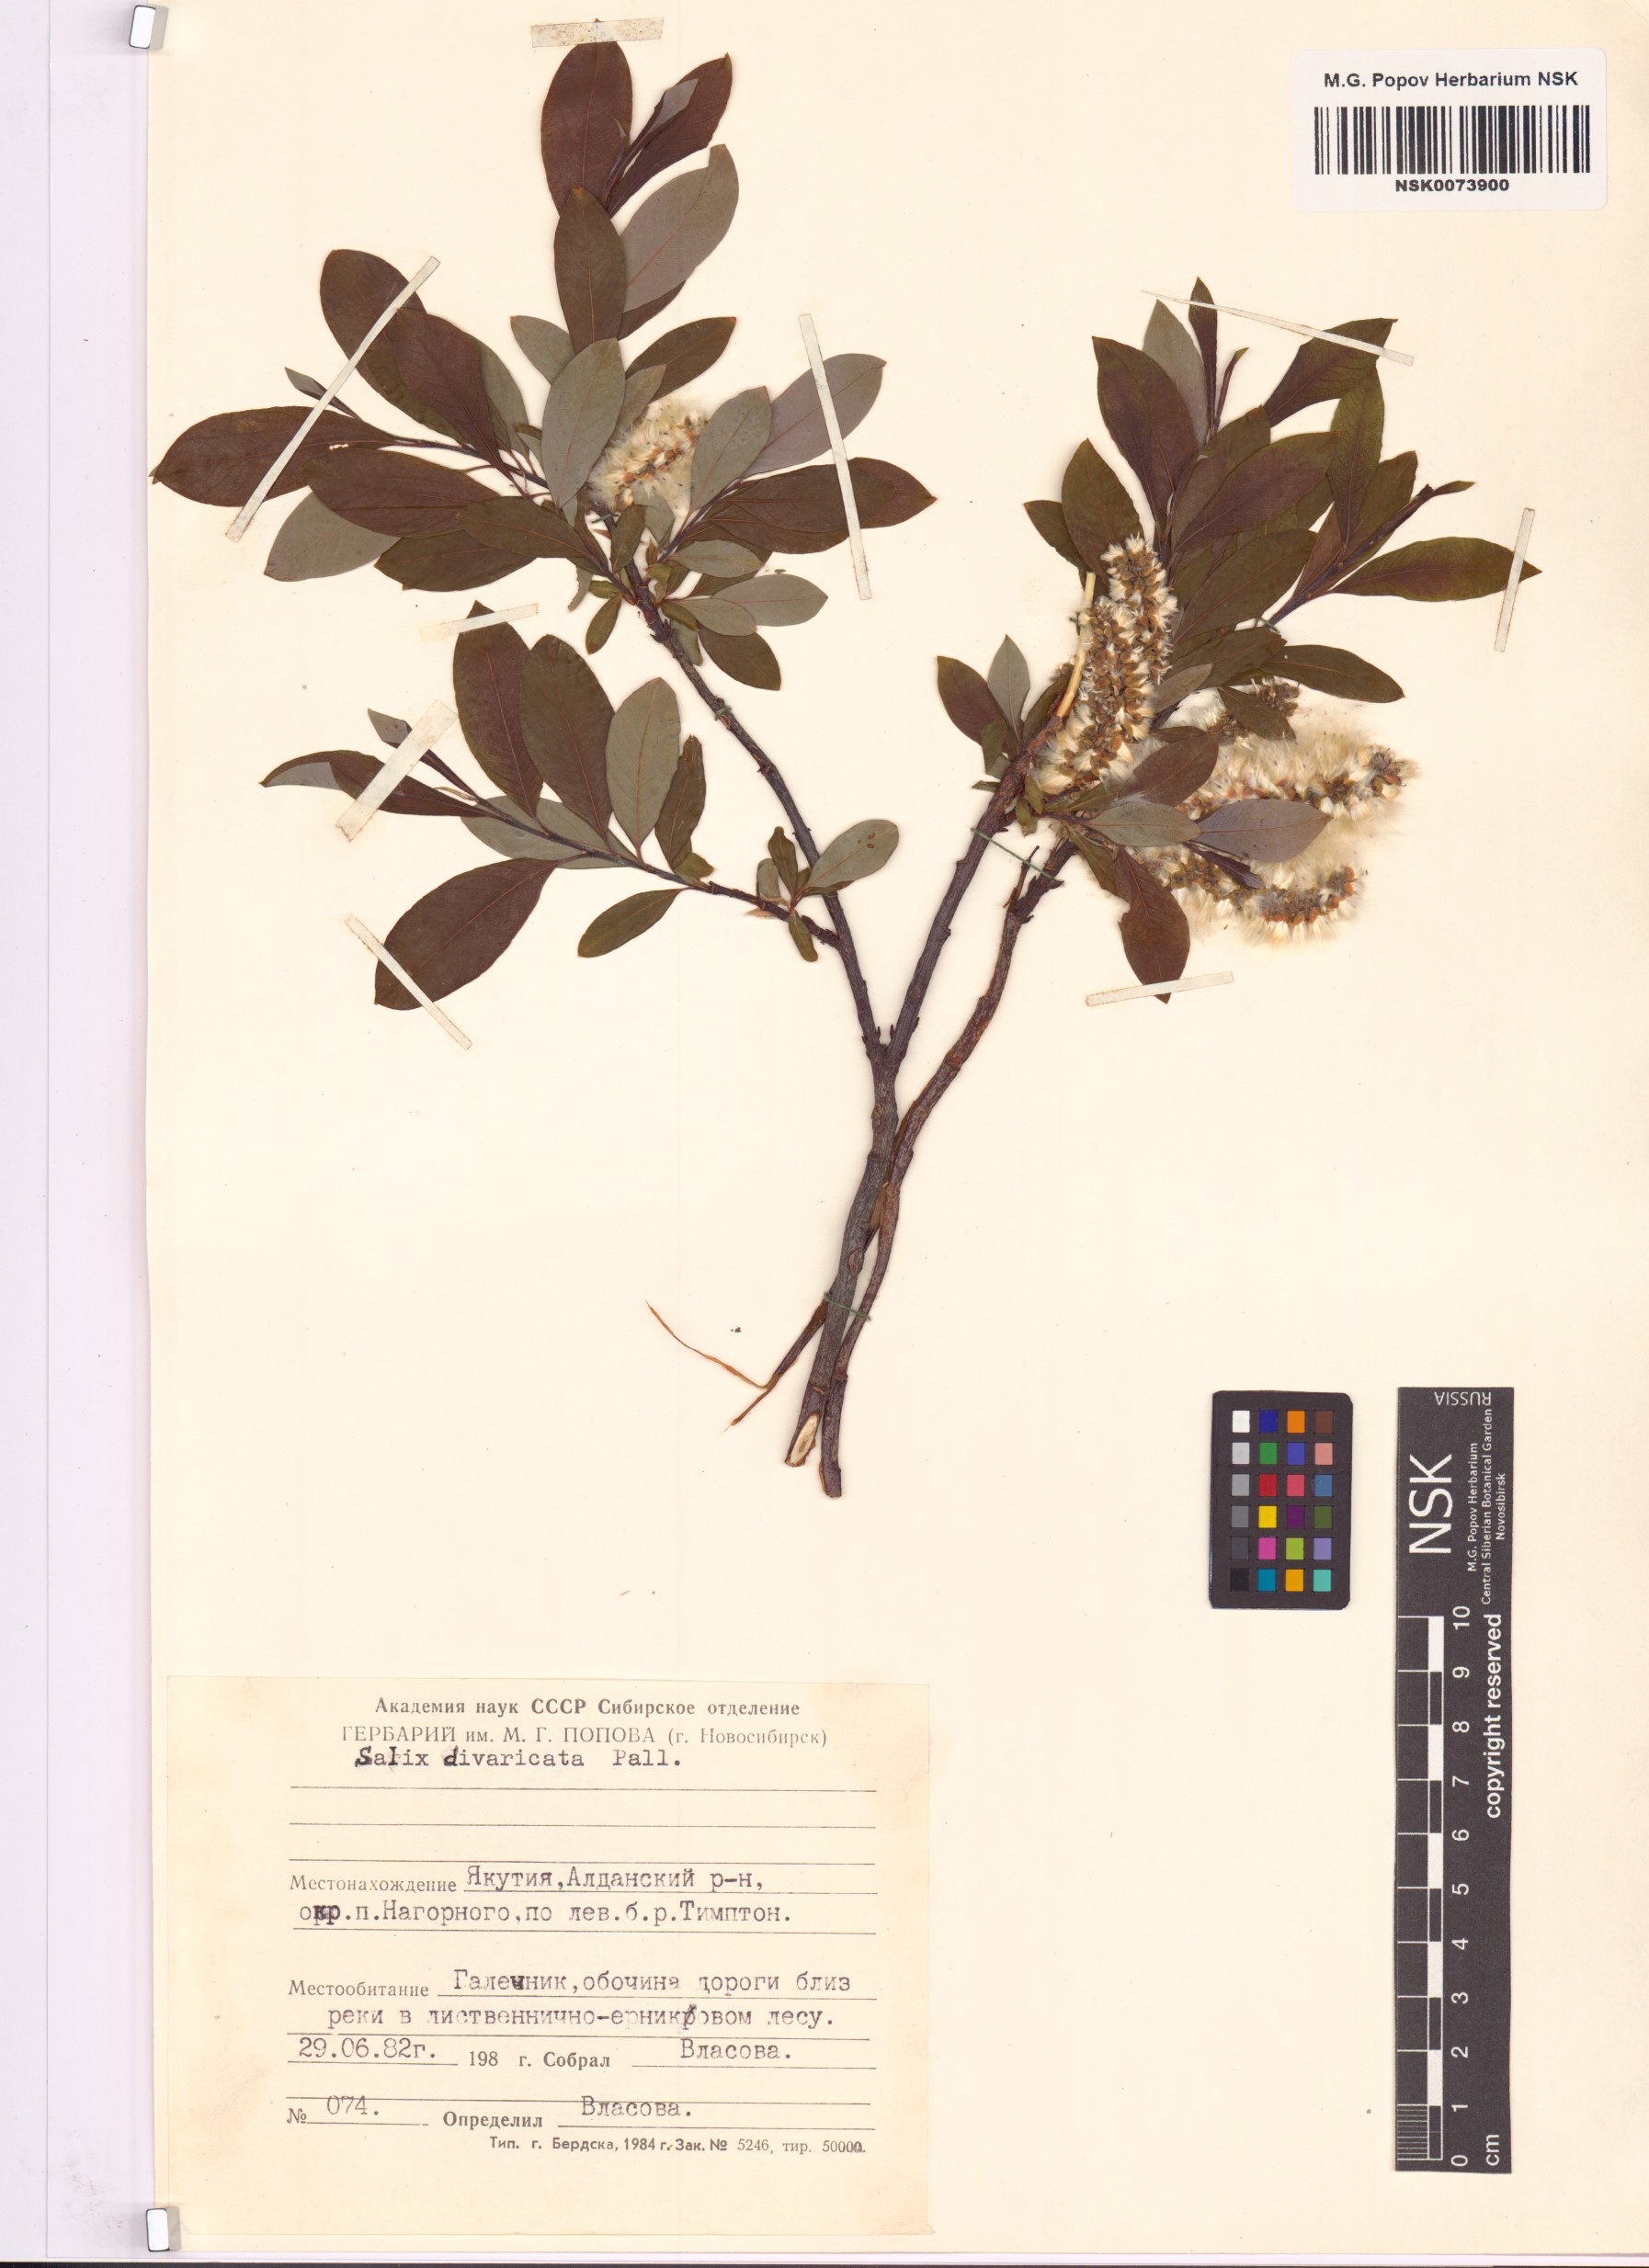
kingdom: Plantae
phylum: Tracheophyta
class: Magnoliopsida
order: Malpighiales
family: Salicaceae
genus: Salix
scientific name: Salix divaricata
